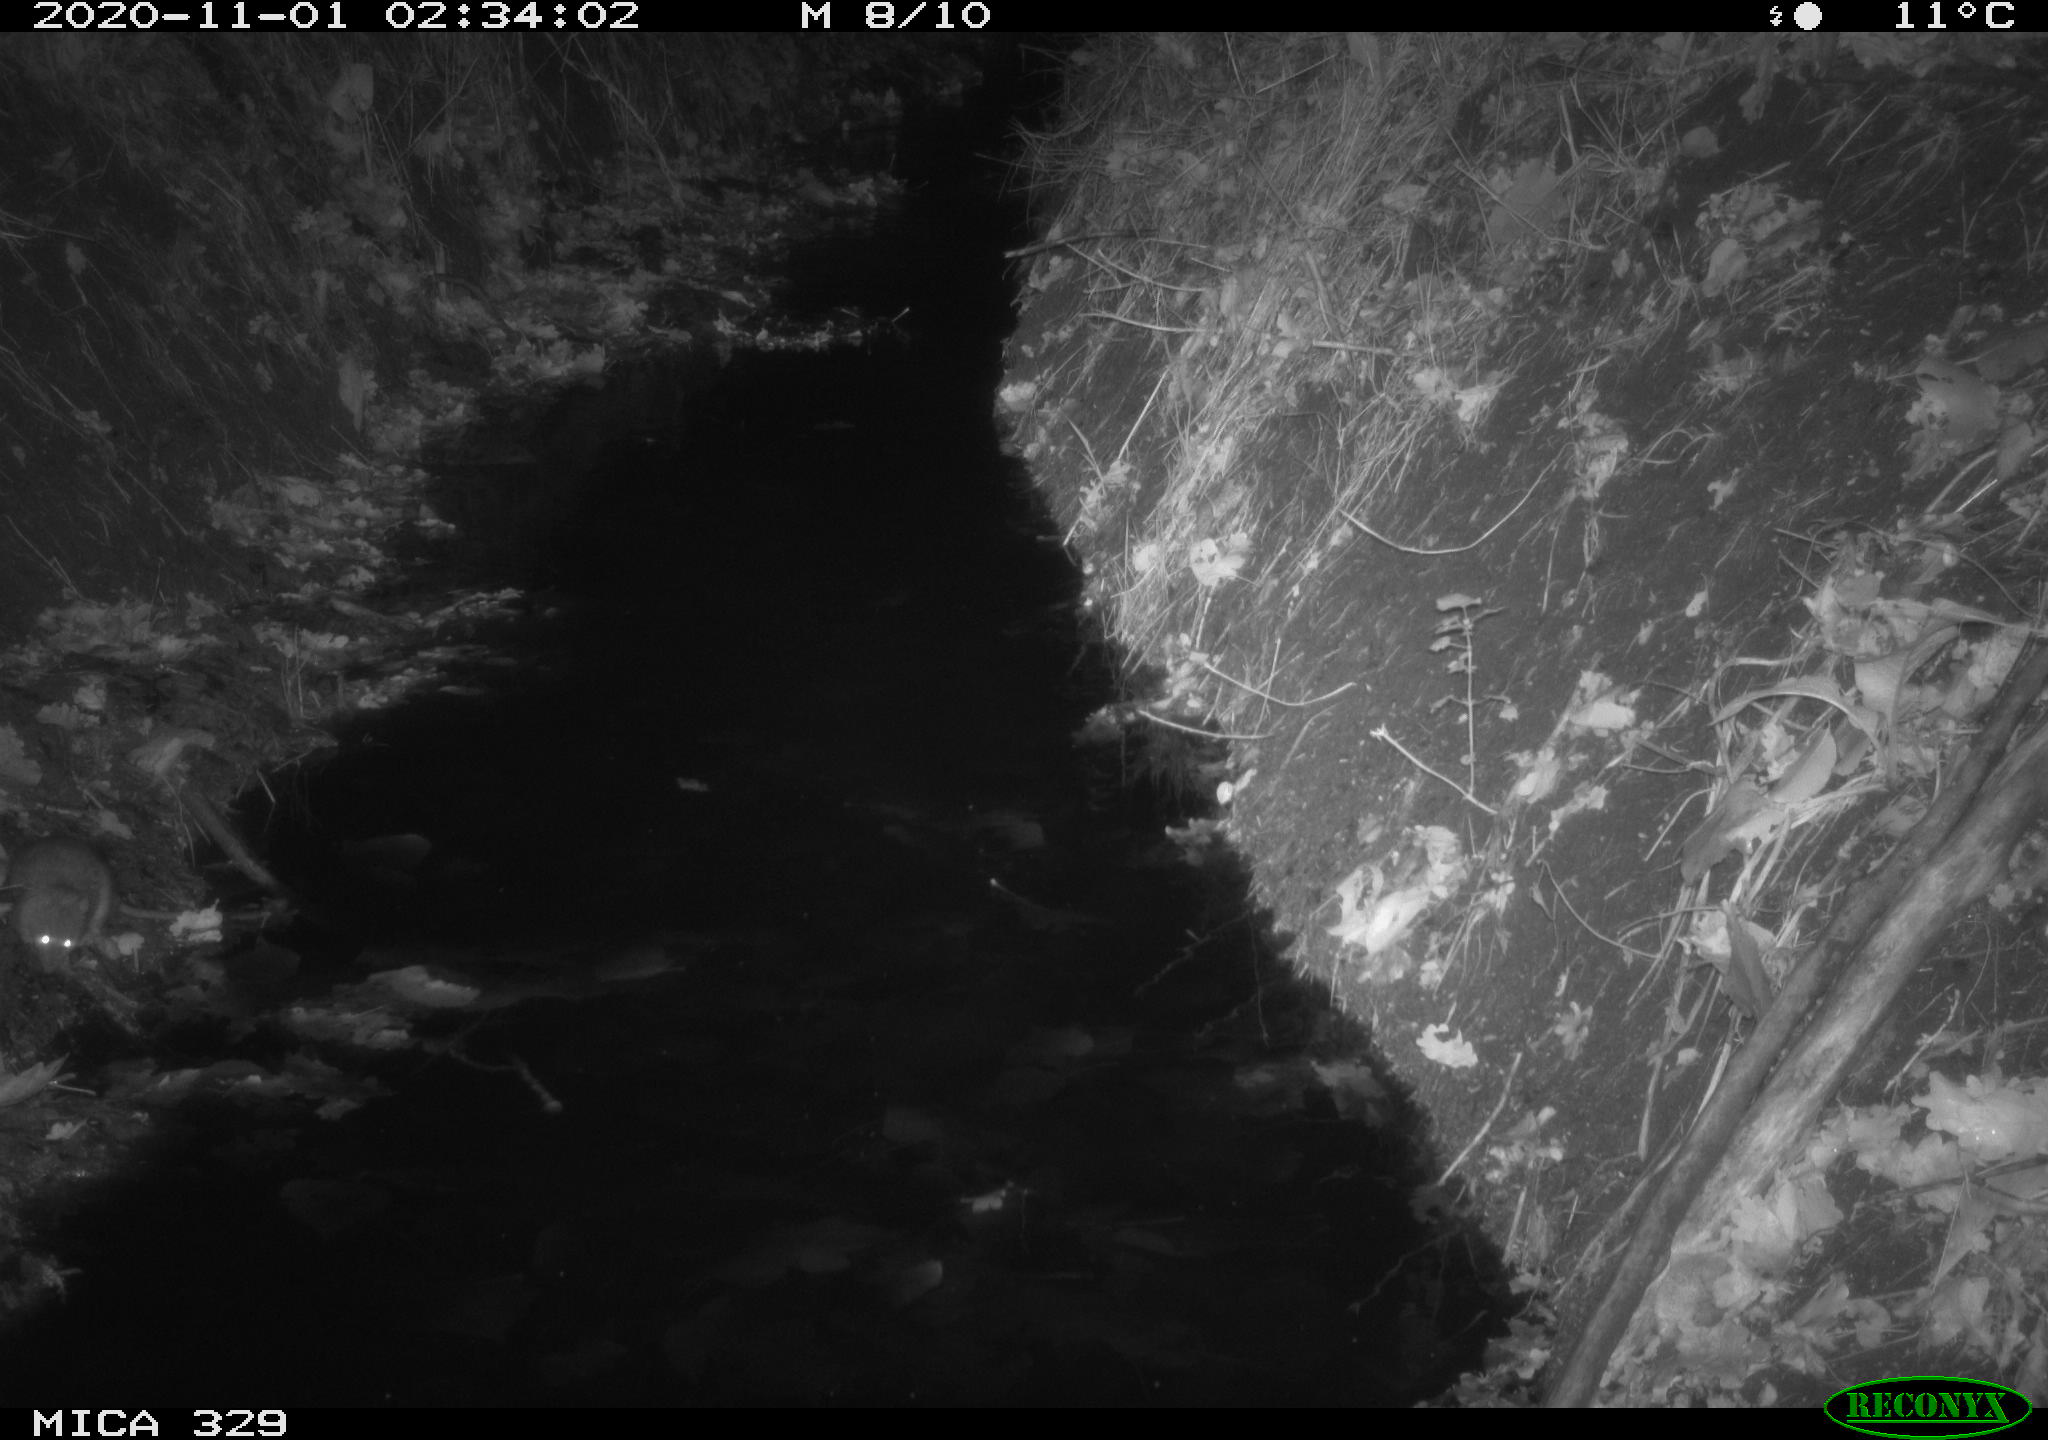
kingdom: Animalia
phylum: Chordata
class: Mammalia
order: Rodentia
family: Muridae
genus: Rattus
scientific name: Rattus norvegicus
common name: Brown rat
